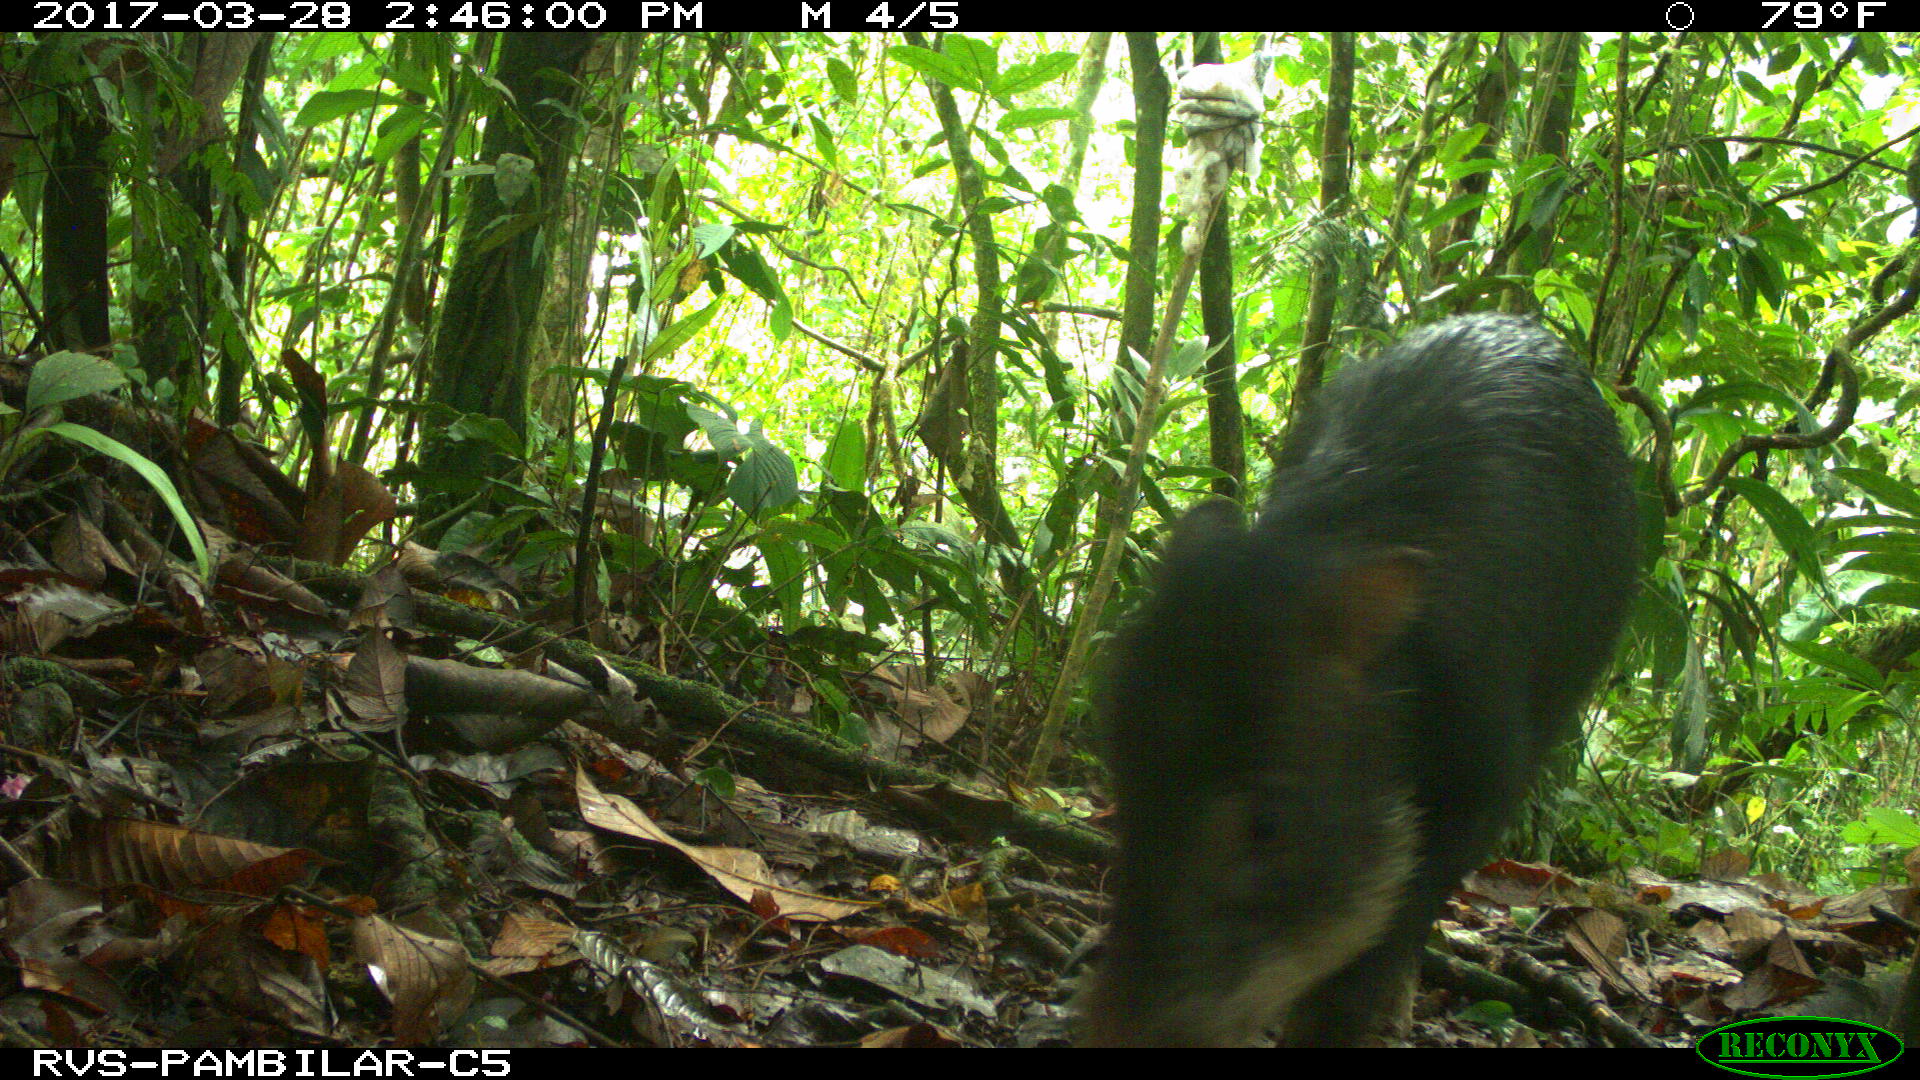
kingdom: Animalia
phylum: Chordata
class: Mammalia
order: Artiodactyla
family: Tayassuidae
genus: Tayassu
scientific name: Tayassu pecari
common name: White-lipped peccary
